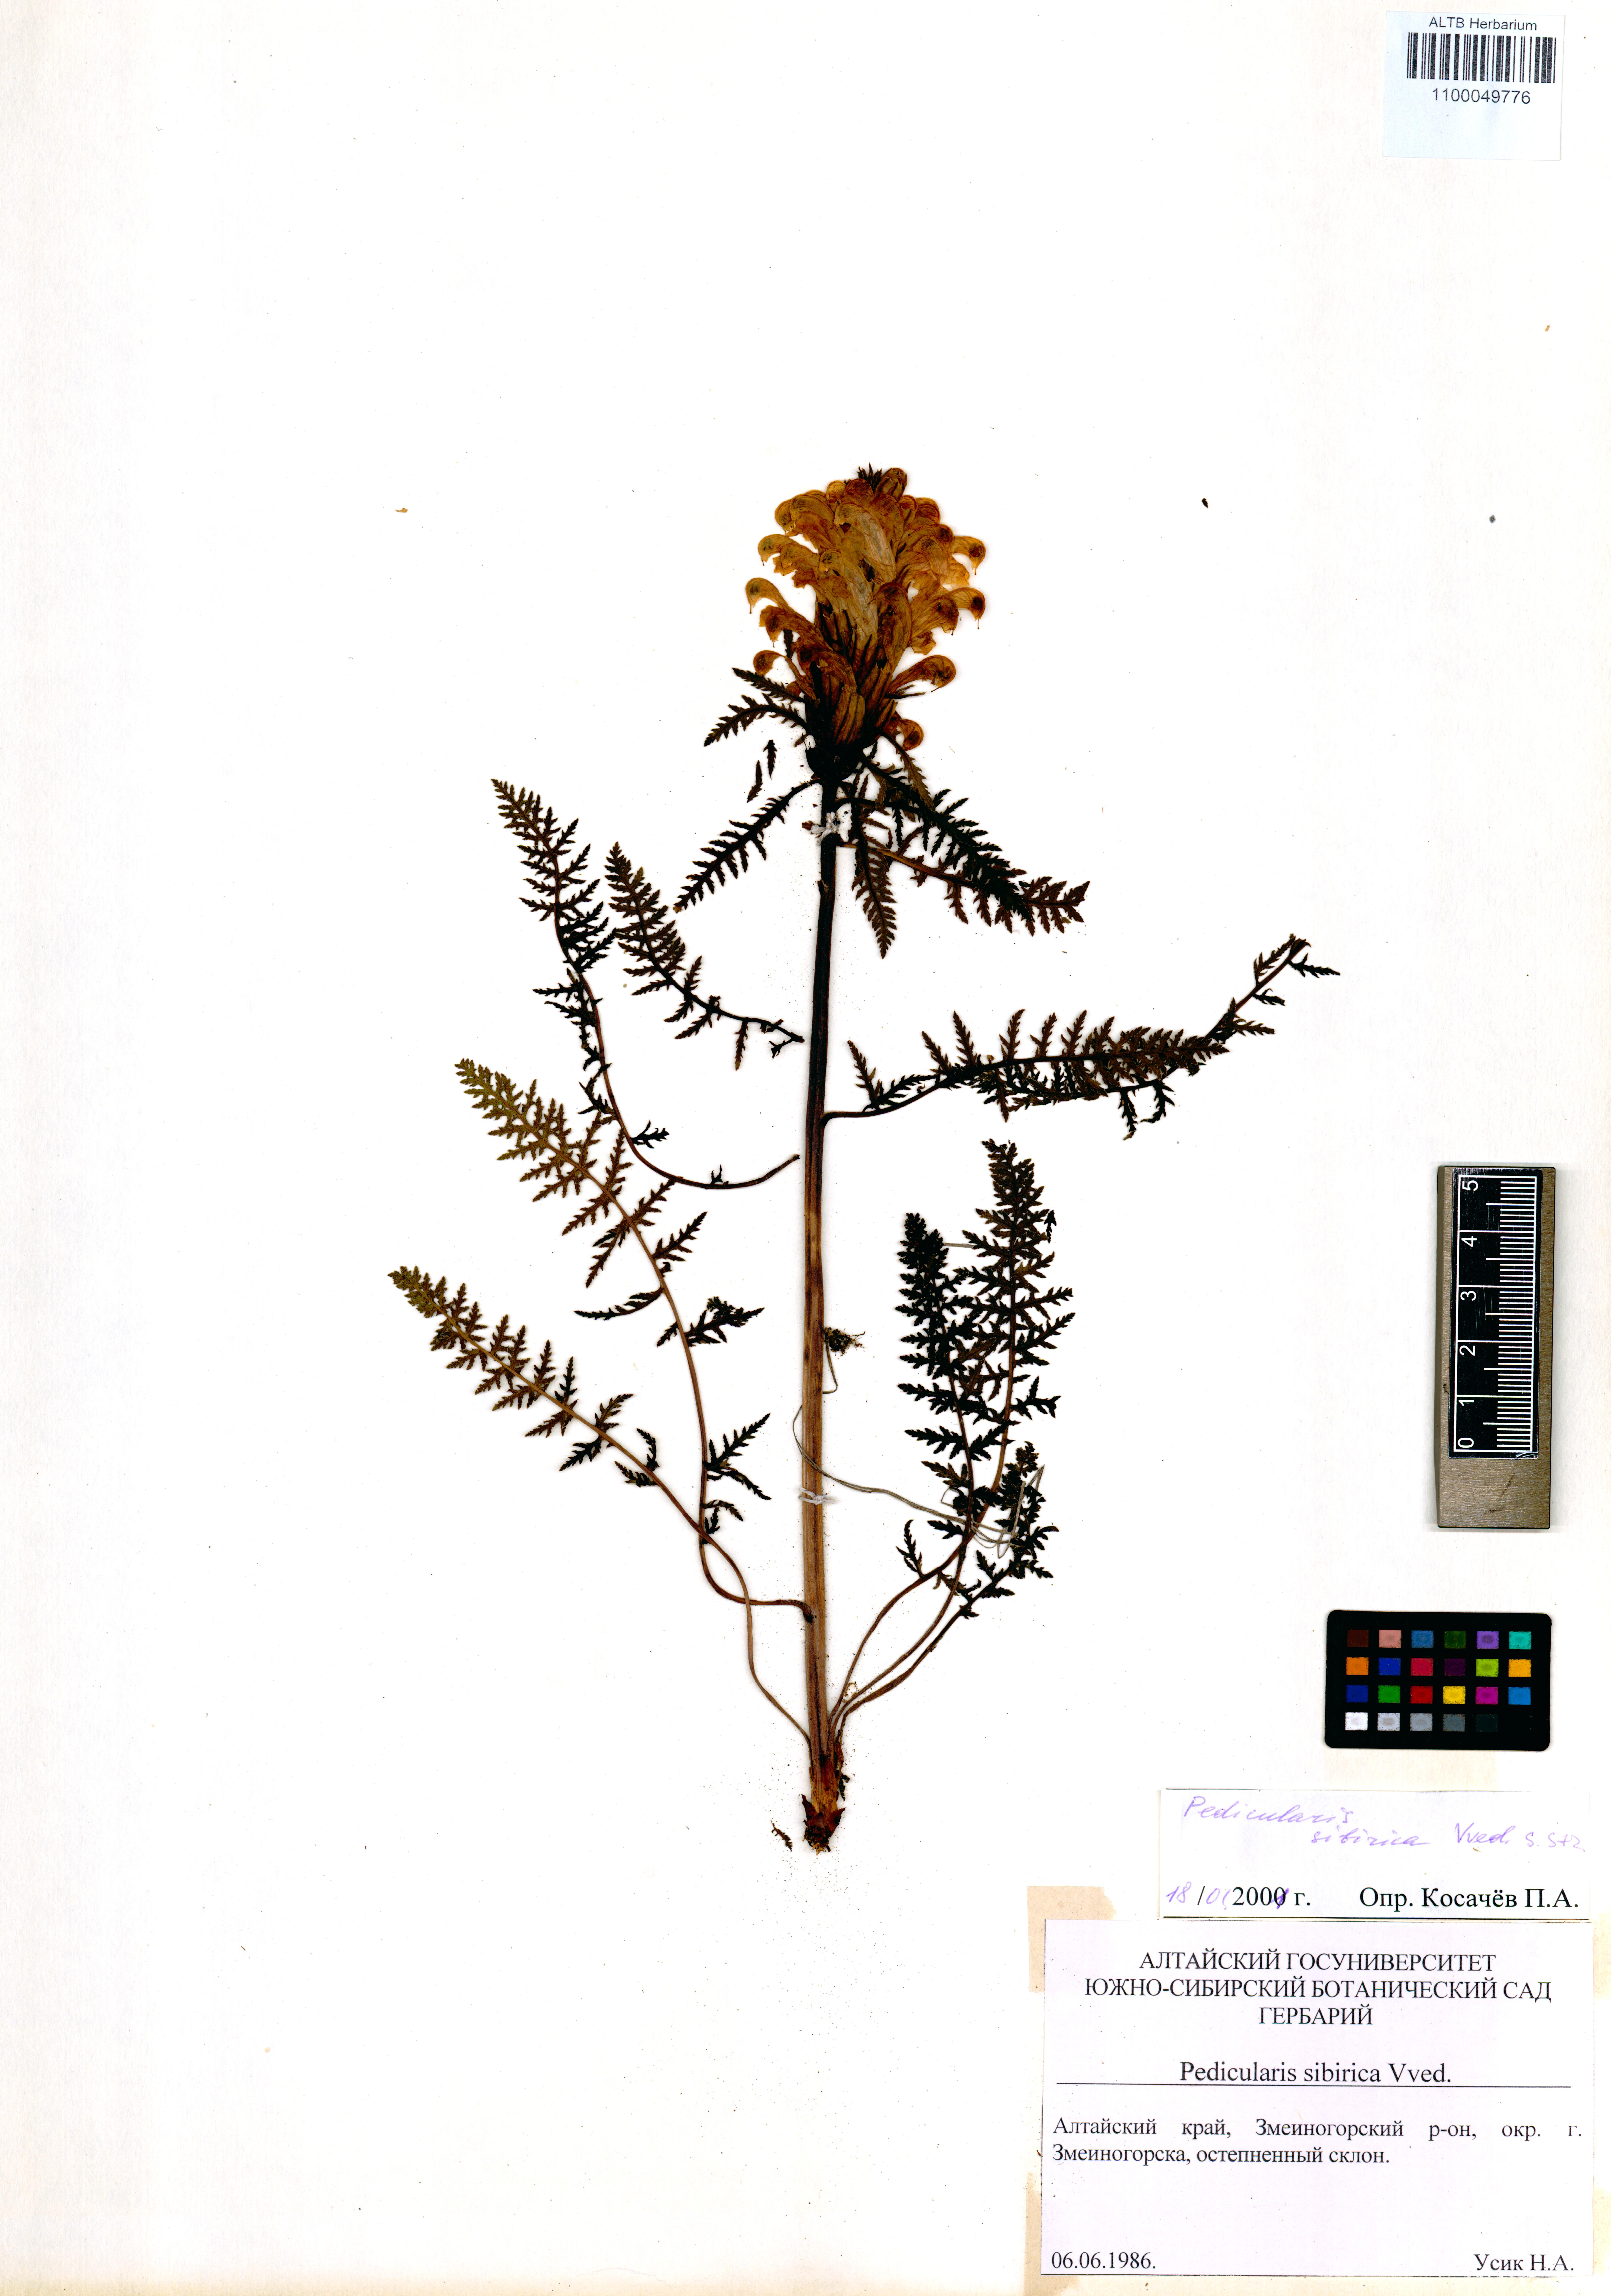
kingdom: Plantae
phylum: Tracheophyta
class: Magnoliopsida
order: Lamiales
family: Orobanchaceae
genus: Pedicularis
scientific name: Pedicularis sibirica
